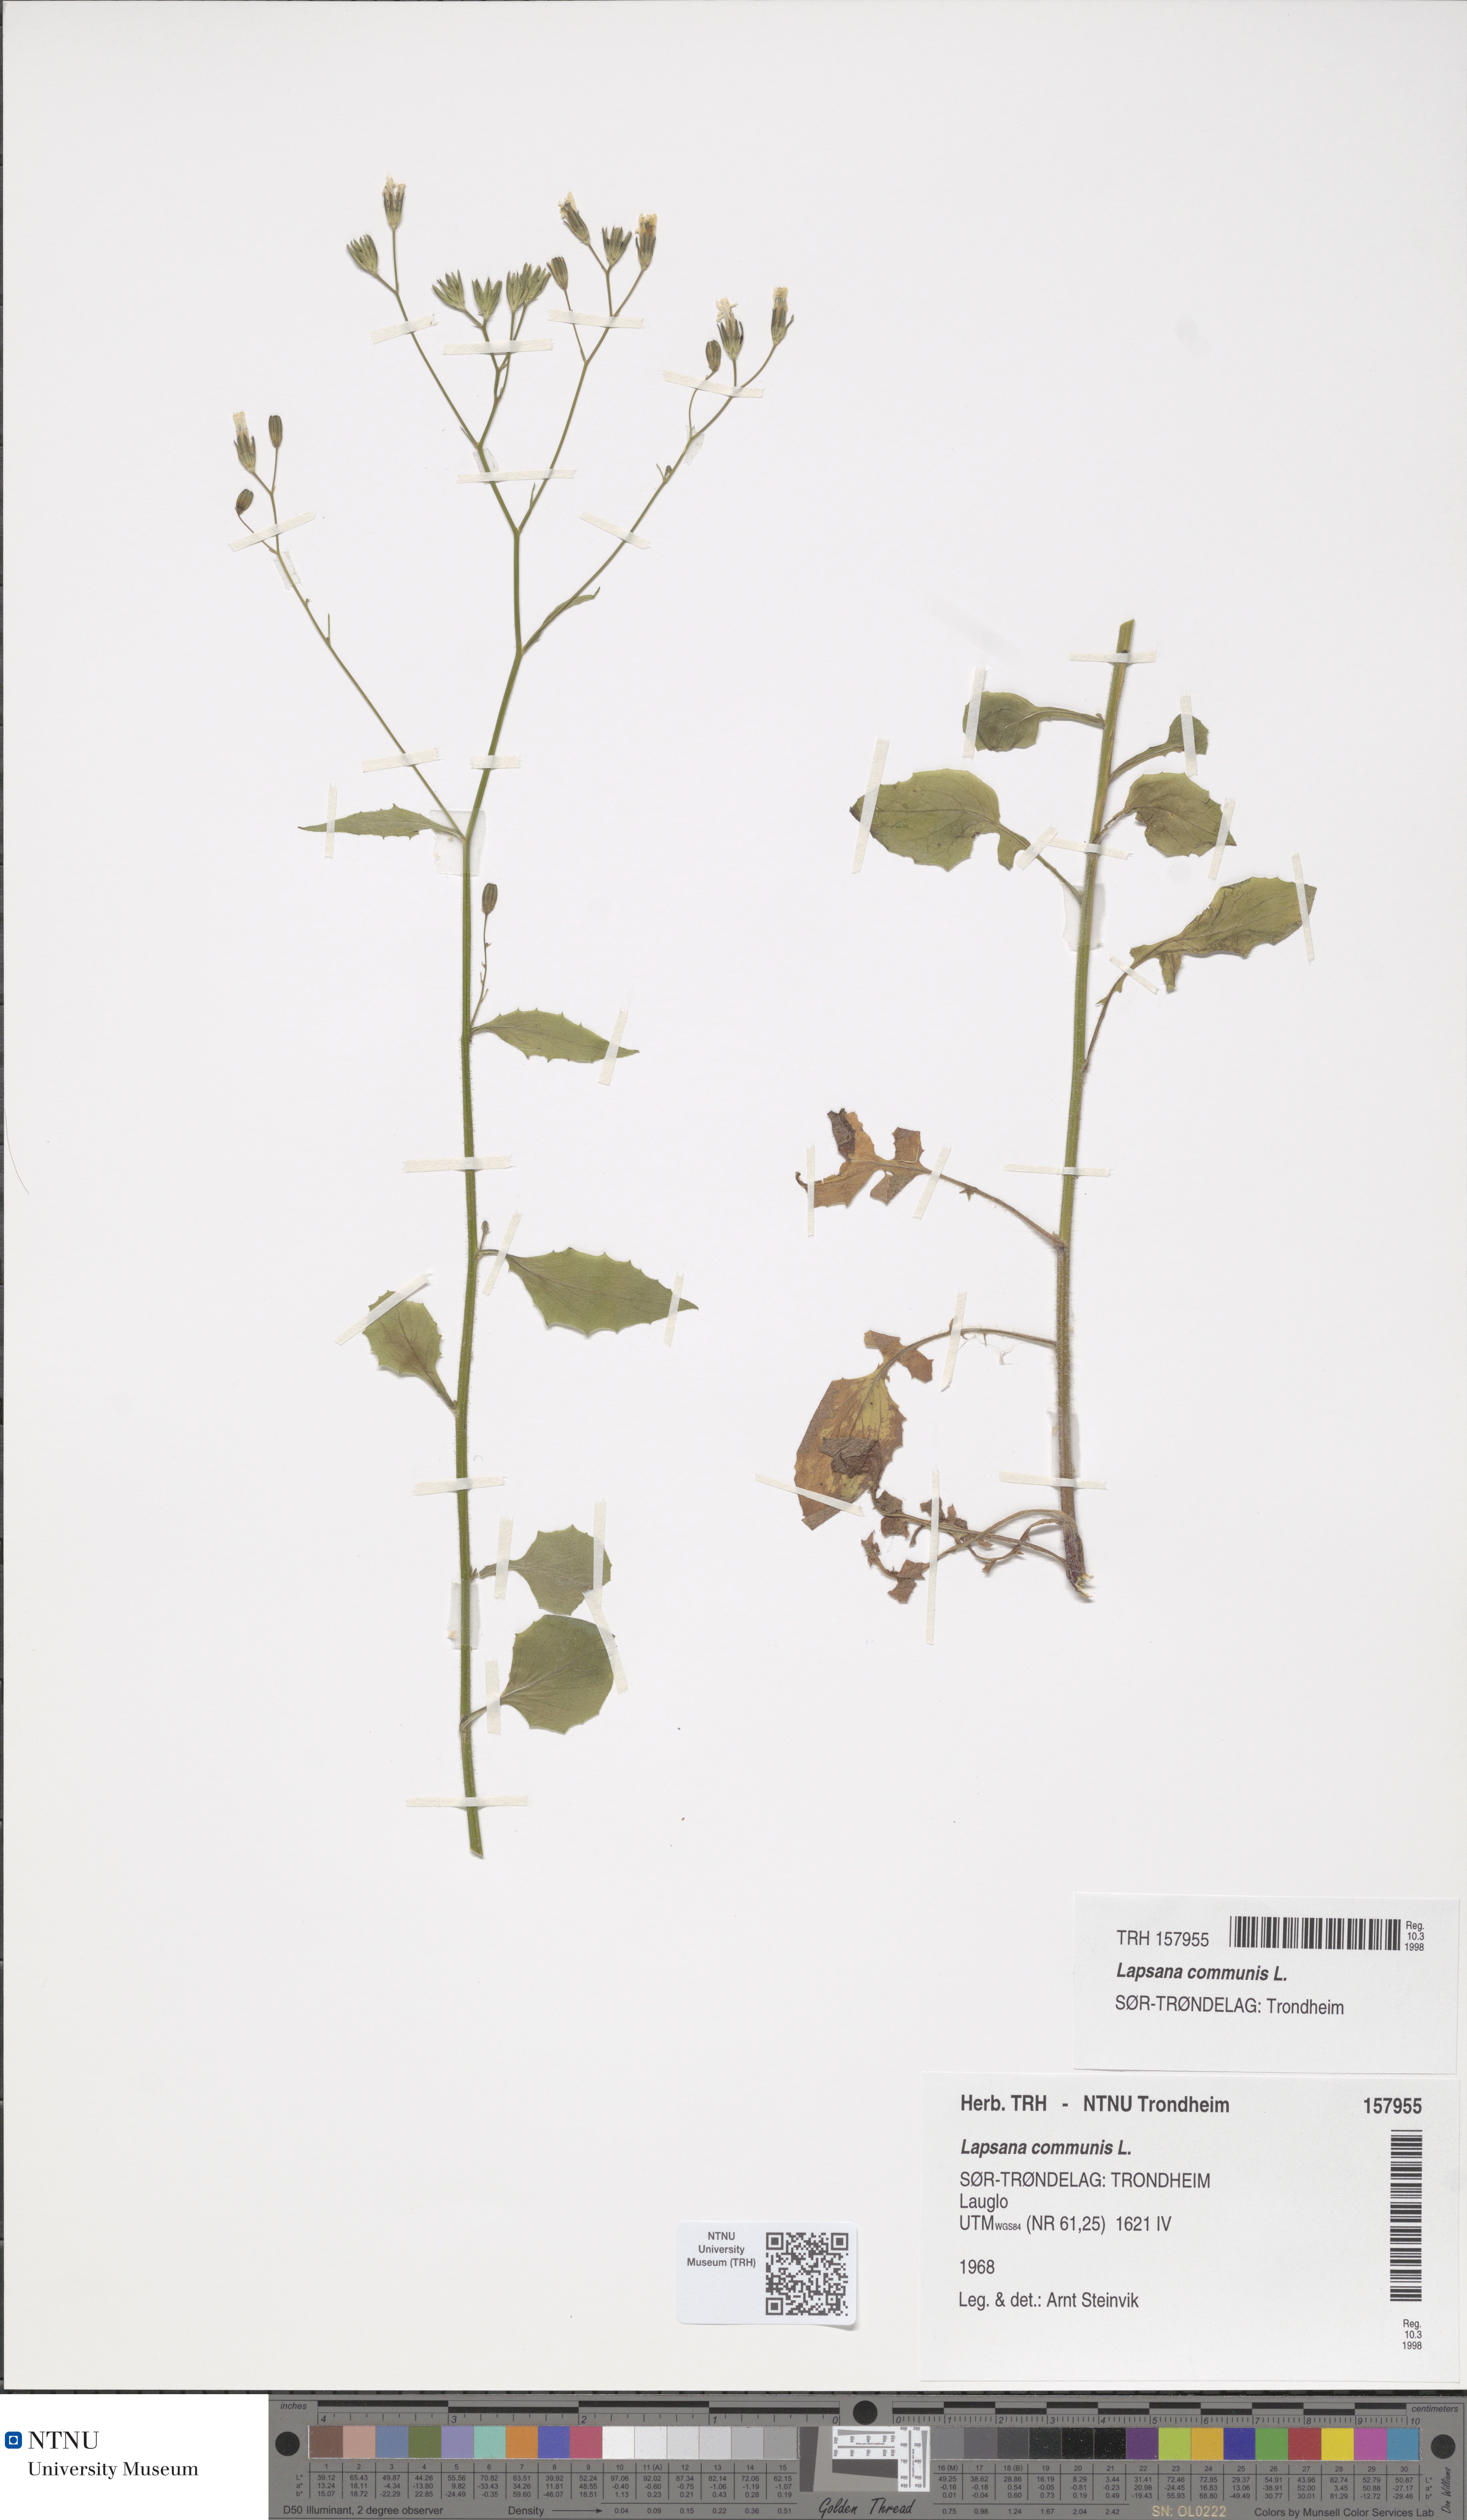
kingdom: Plantae
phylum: Tracheophyta
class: Magnoliopsida
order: Asterales
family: Asteraceae
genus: Lapsana
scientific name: Lapsana communis
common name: Nipplewort
